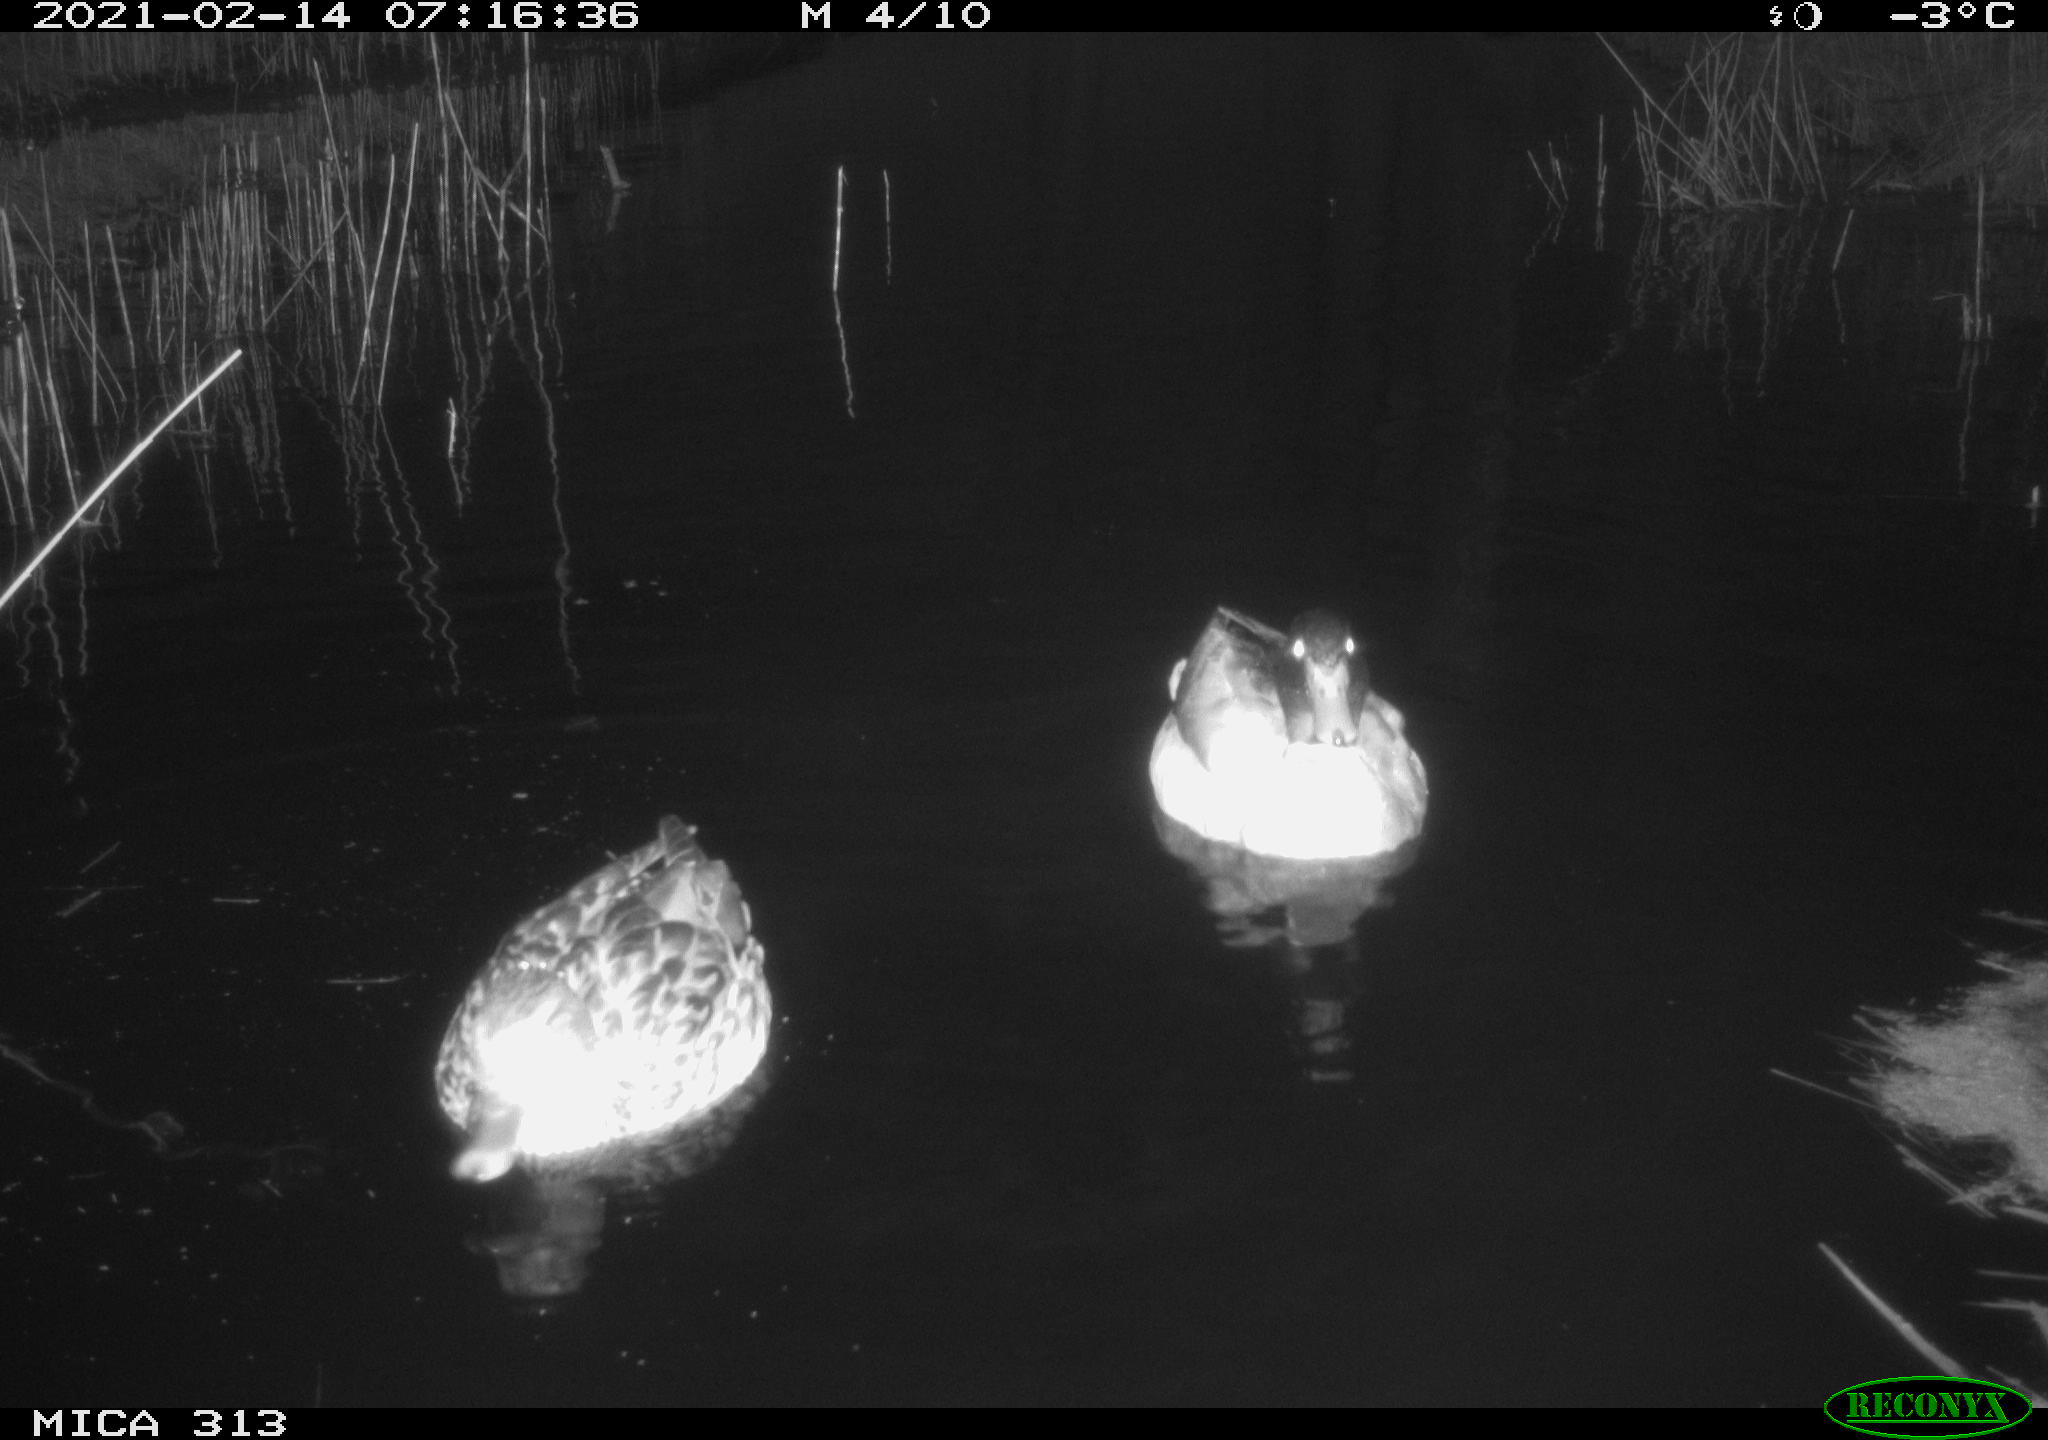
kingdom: Animalia
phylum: Chordata
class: Aves
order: Anseriformes
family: Anatidae
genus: Anas
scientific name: Anas
